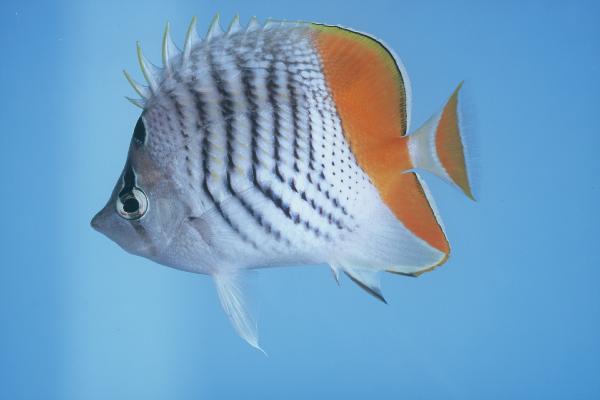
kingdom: Animalia
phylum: Chordata
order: Perciformes
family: Chaetodontidae
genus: Chaetodon
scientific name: Chaetodon madagaskariensis
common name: Madagascar butterflyfish
